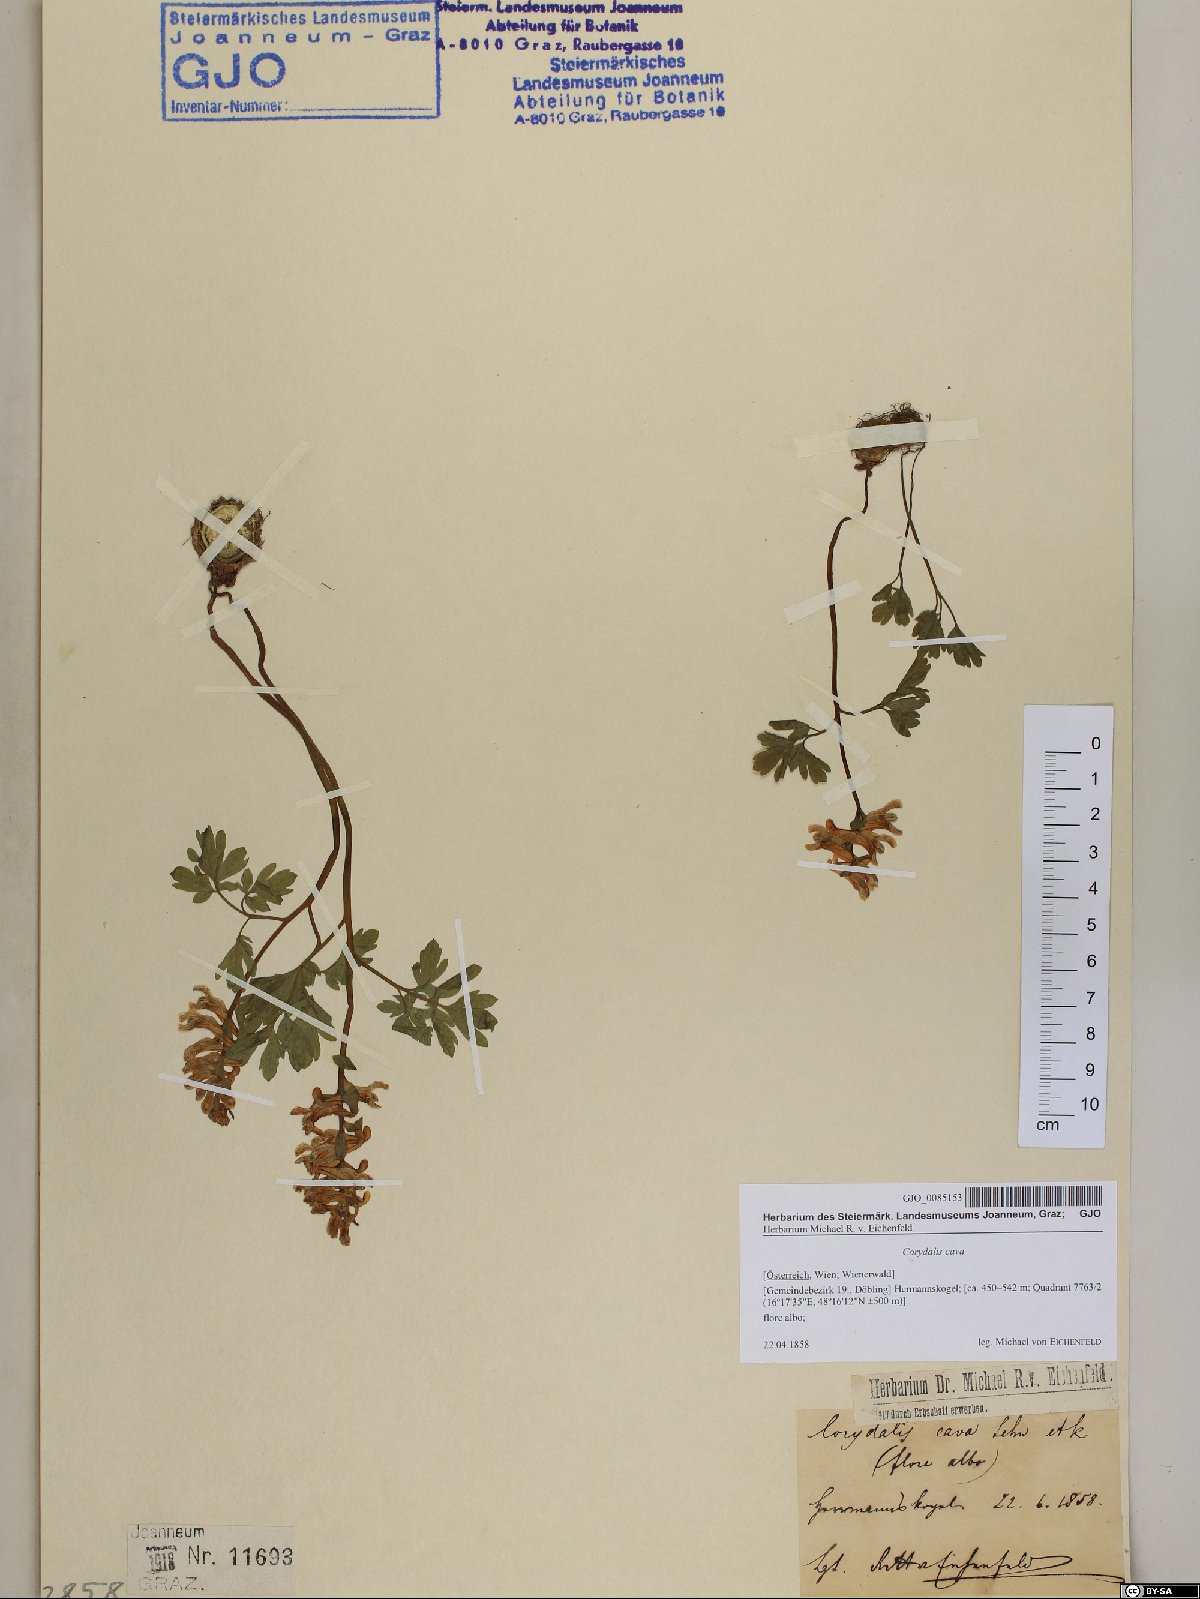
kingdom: Plantae
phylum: Tracheophyta
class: Magnoliopsida
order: Ranunculales
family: Papaveraceae
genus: Corydalis
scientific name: Corydalis cava
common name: Hollowroot
